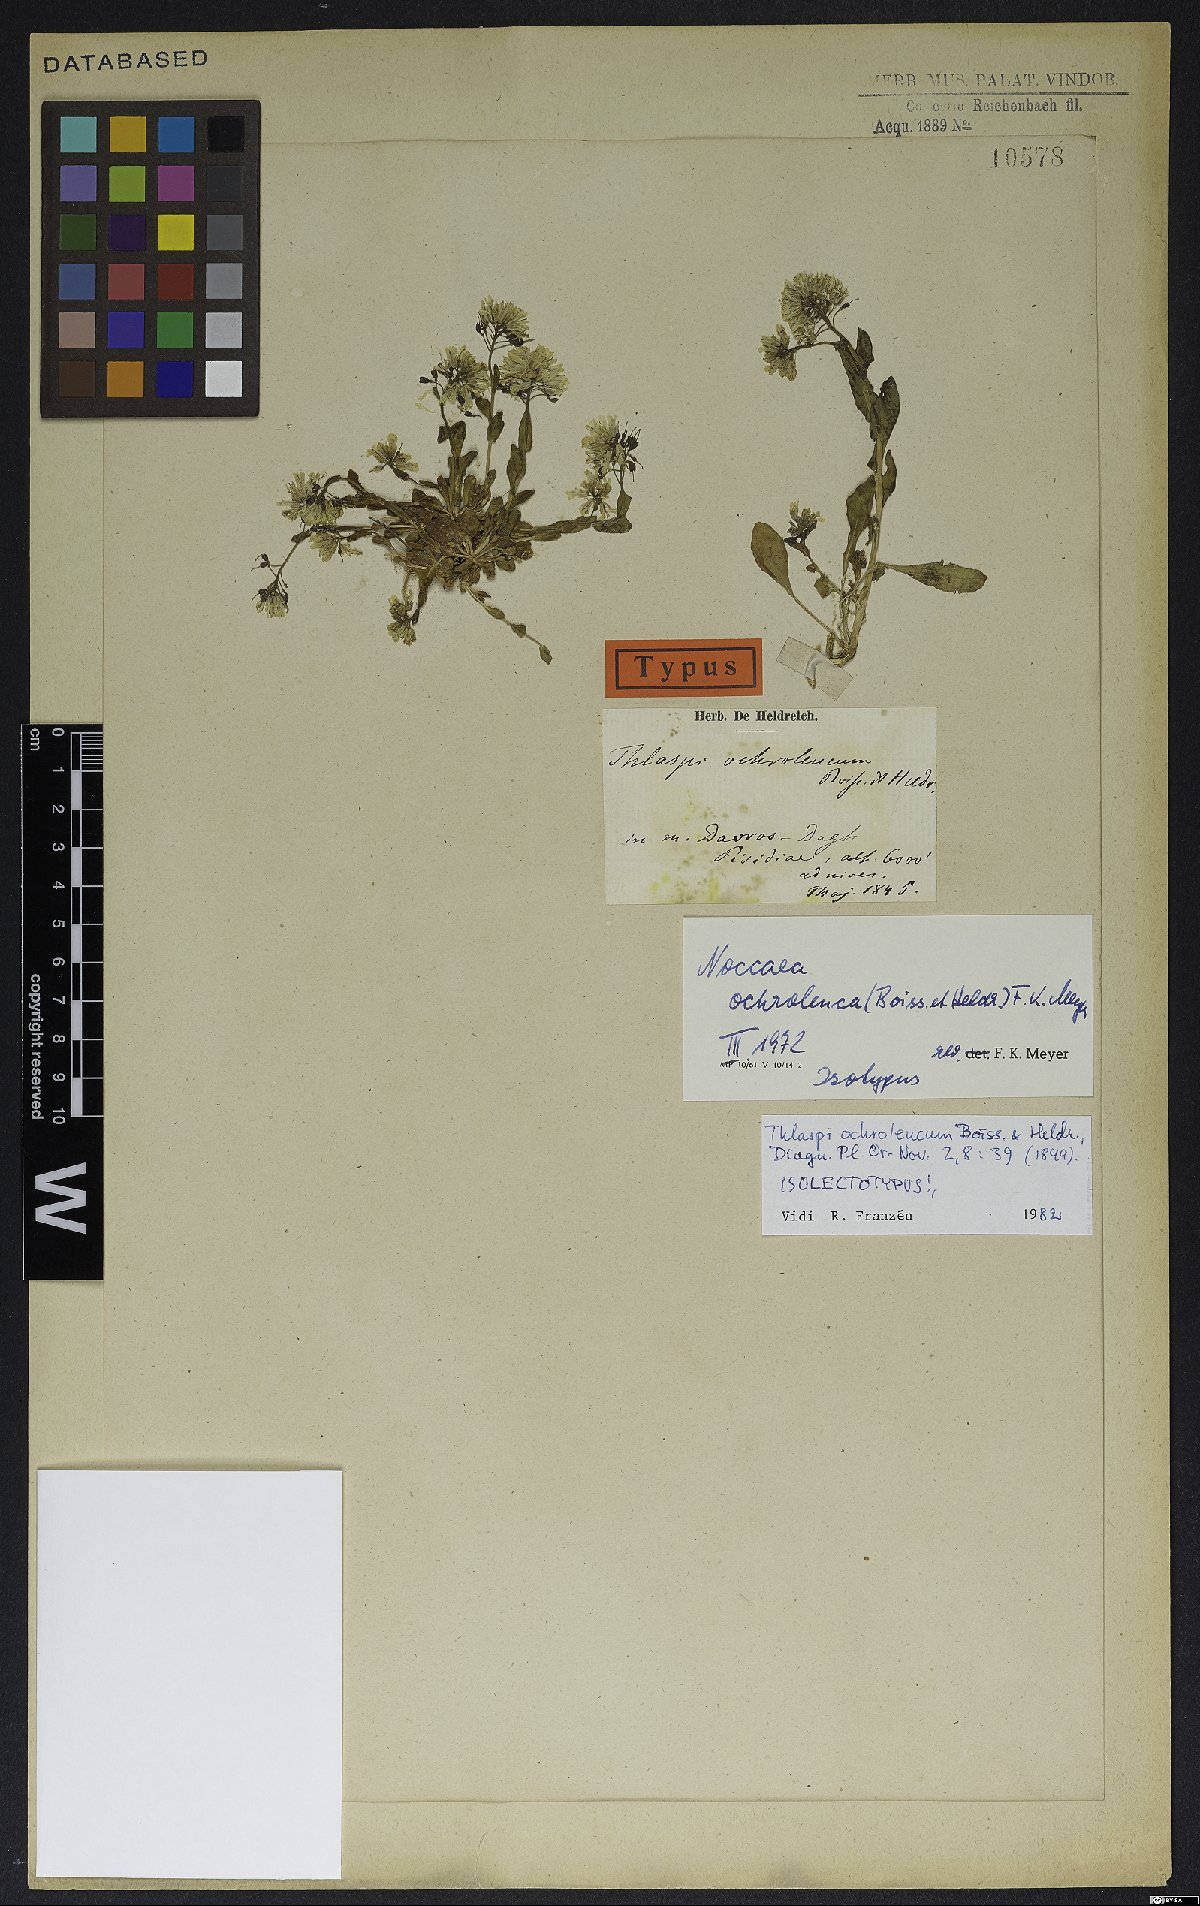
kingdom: Plantae
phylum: Tracheophyta
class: Magnoliopsida
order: Brassicales
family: Brassicaceae
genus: Noccaea
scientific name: Noccaea ochroleuca
